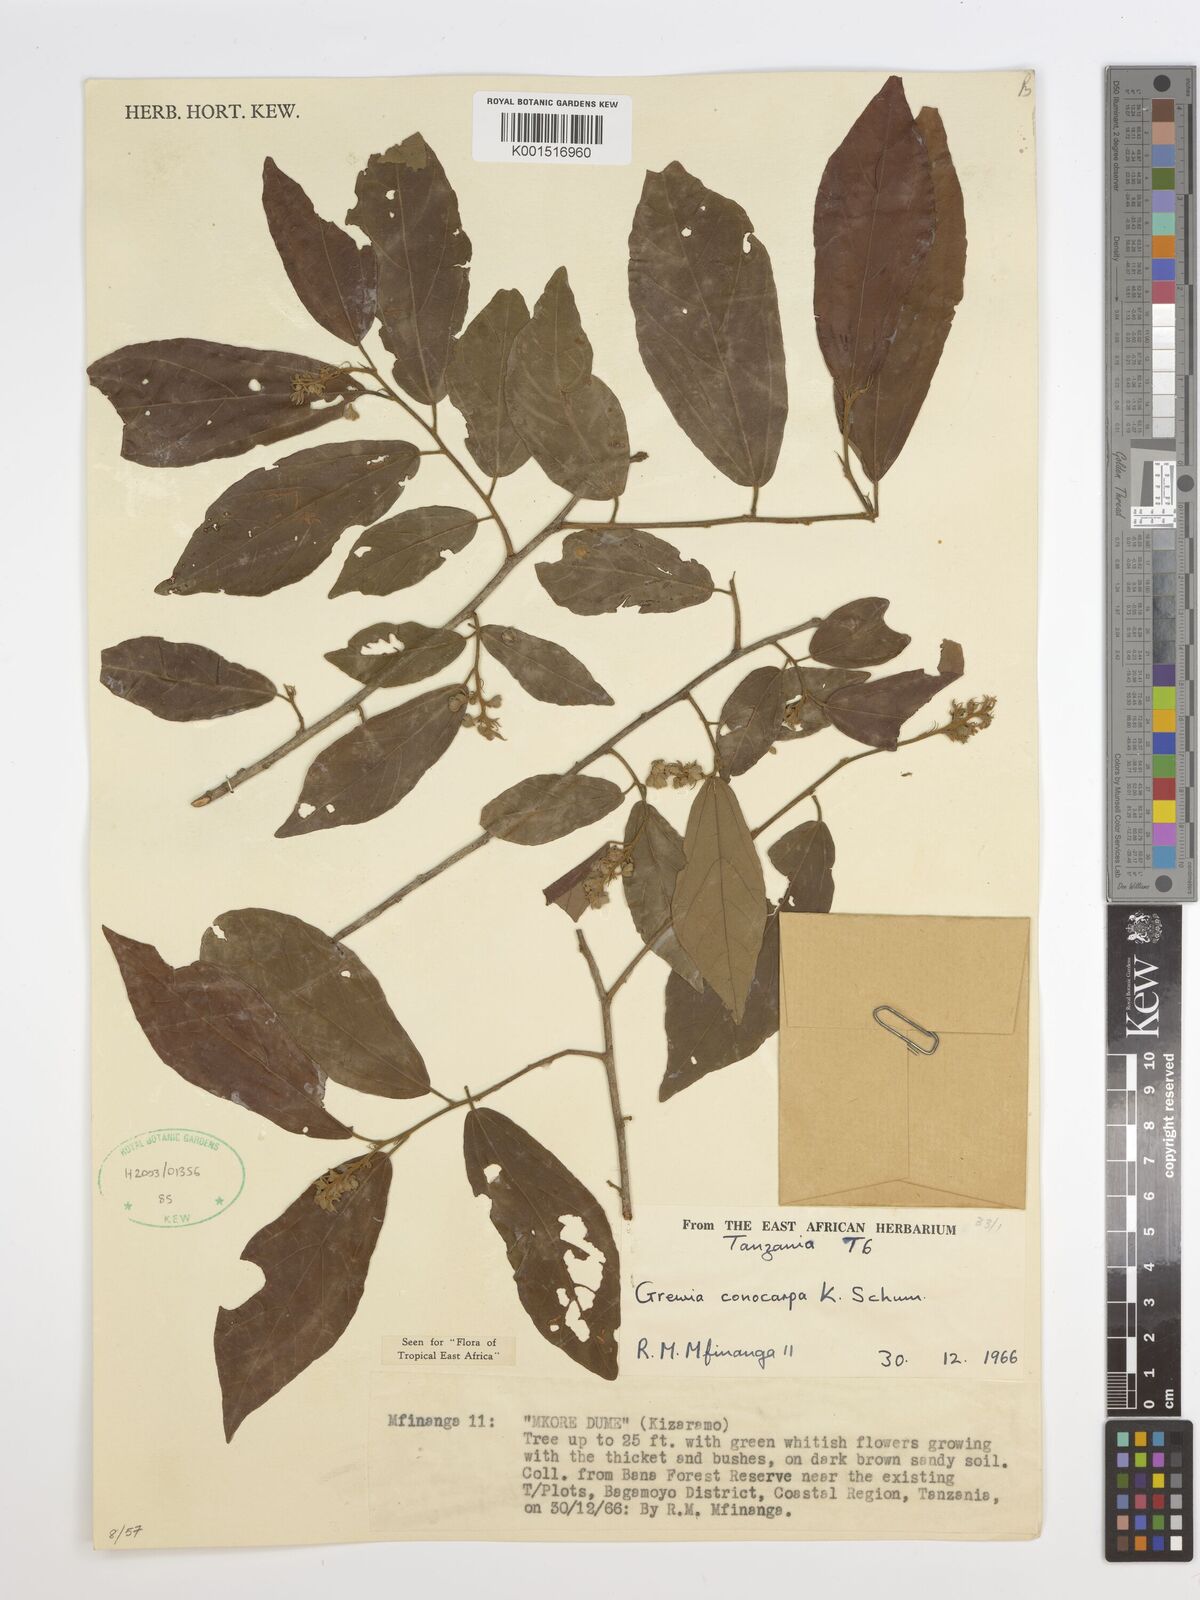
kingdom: Plantae
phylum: Tracheophyta
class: Magnoliopsida
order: Malvales
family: Malvaceae
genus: Microcos
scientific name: Microcos conocarpa
